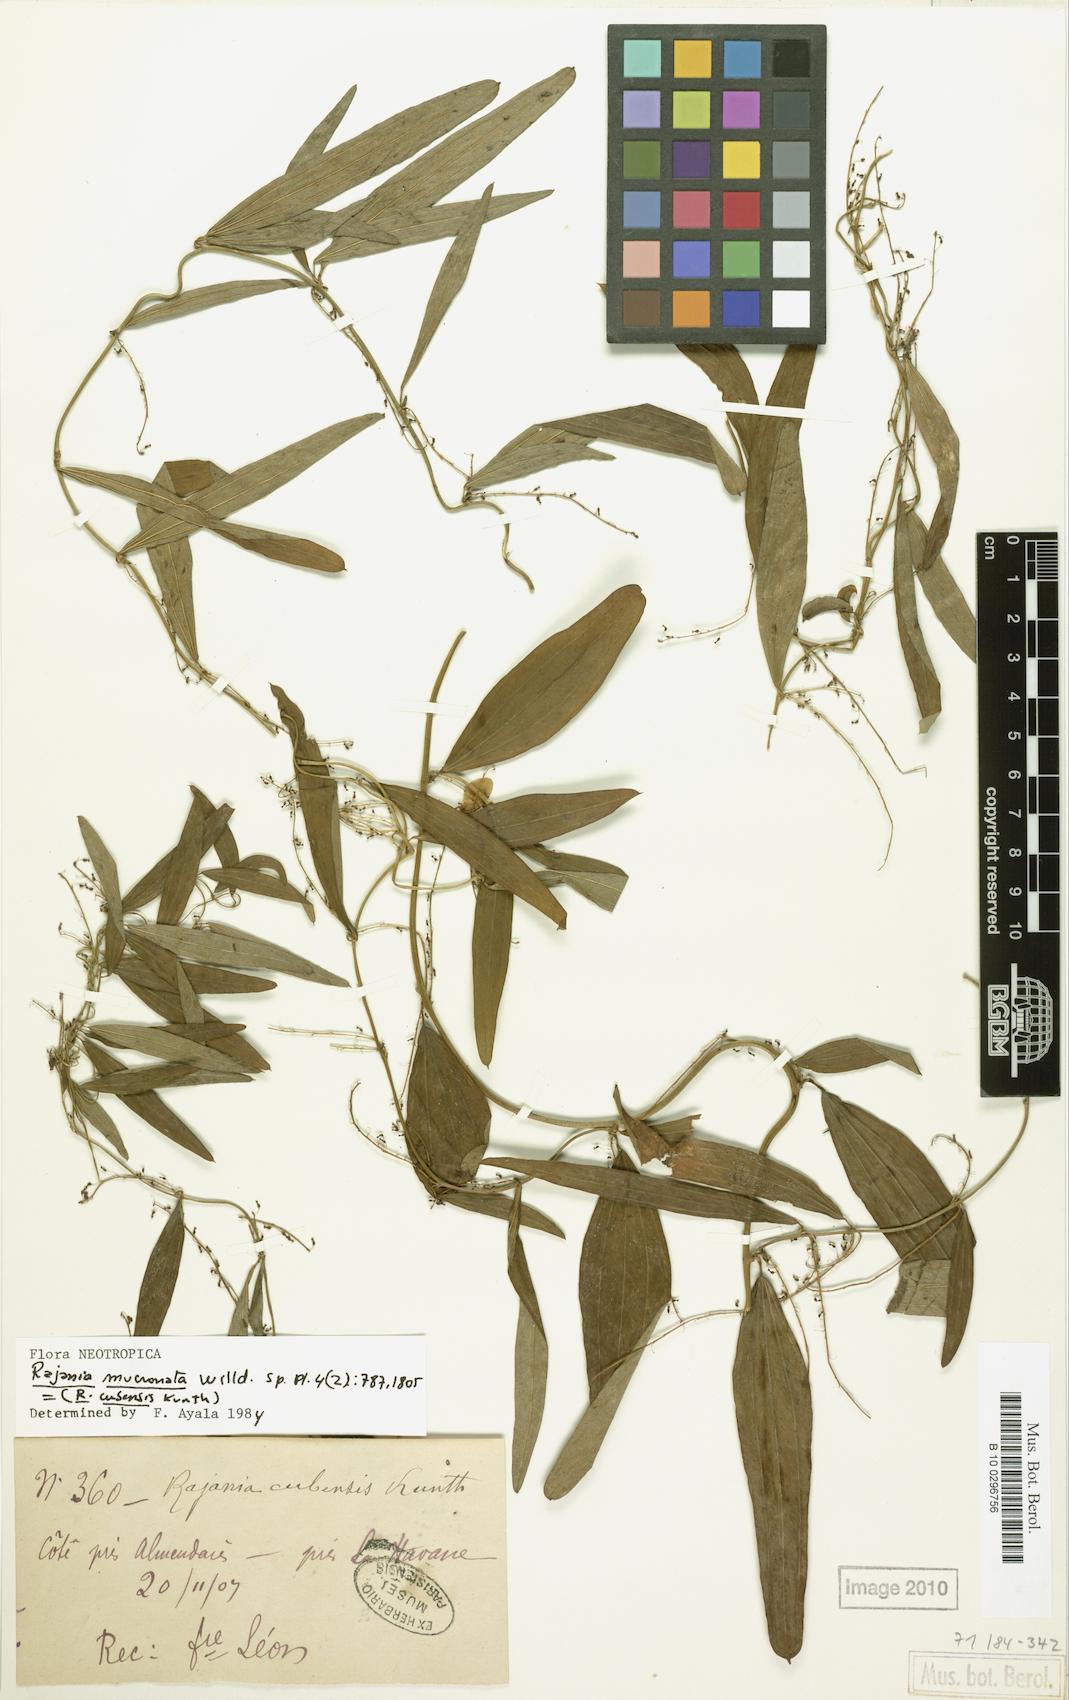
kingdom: Plantae
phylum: Tracheophyta
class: Liliopsida
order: Dioscoreales
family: Dioscoreaceae
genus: Dioscorea
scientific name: Dioscorea quinquefolia
